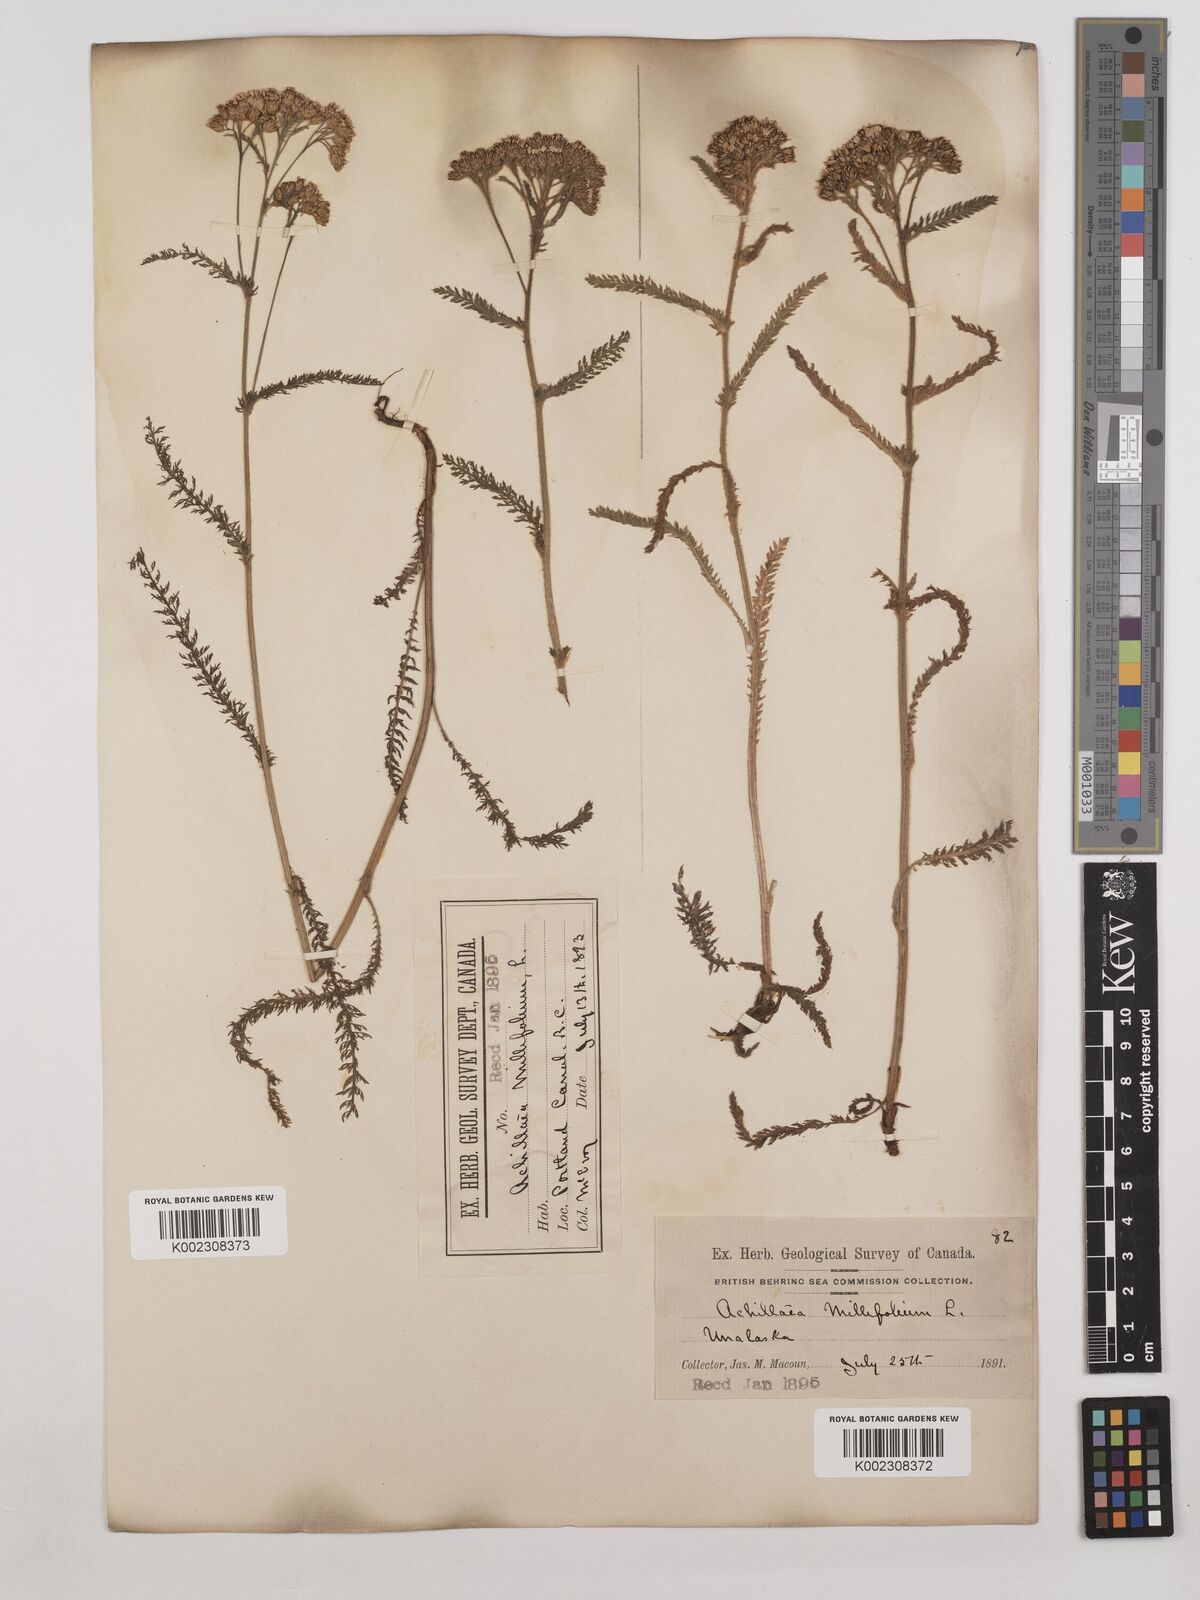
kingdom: Plantae
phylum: Tracheophyta
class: Magnoliopsida
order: Asterales
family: Asteraceae
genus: Achillea
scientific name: Achillea millefolium
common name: Yarrow
